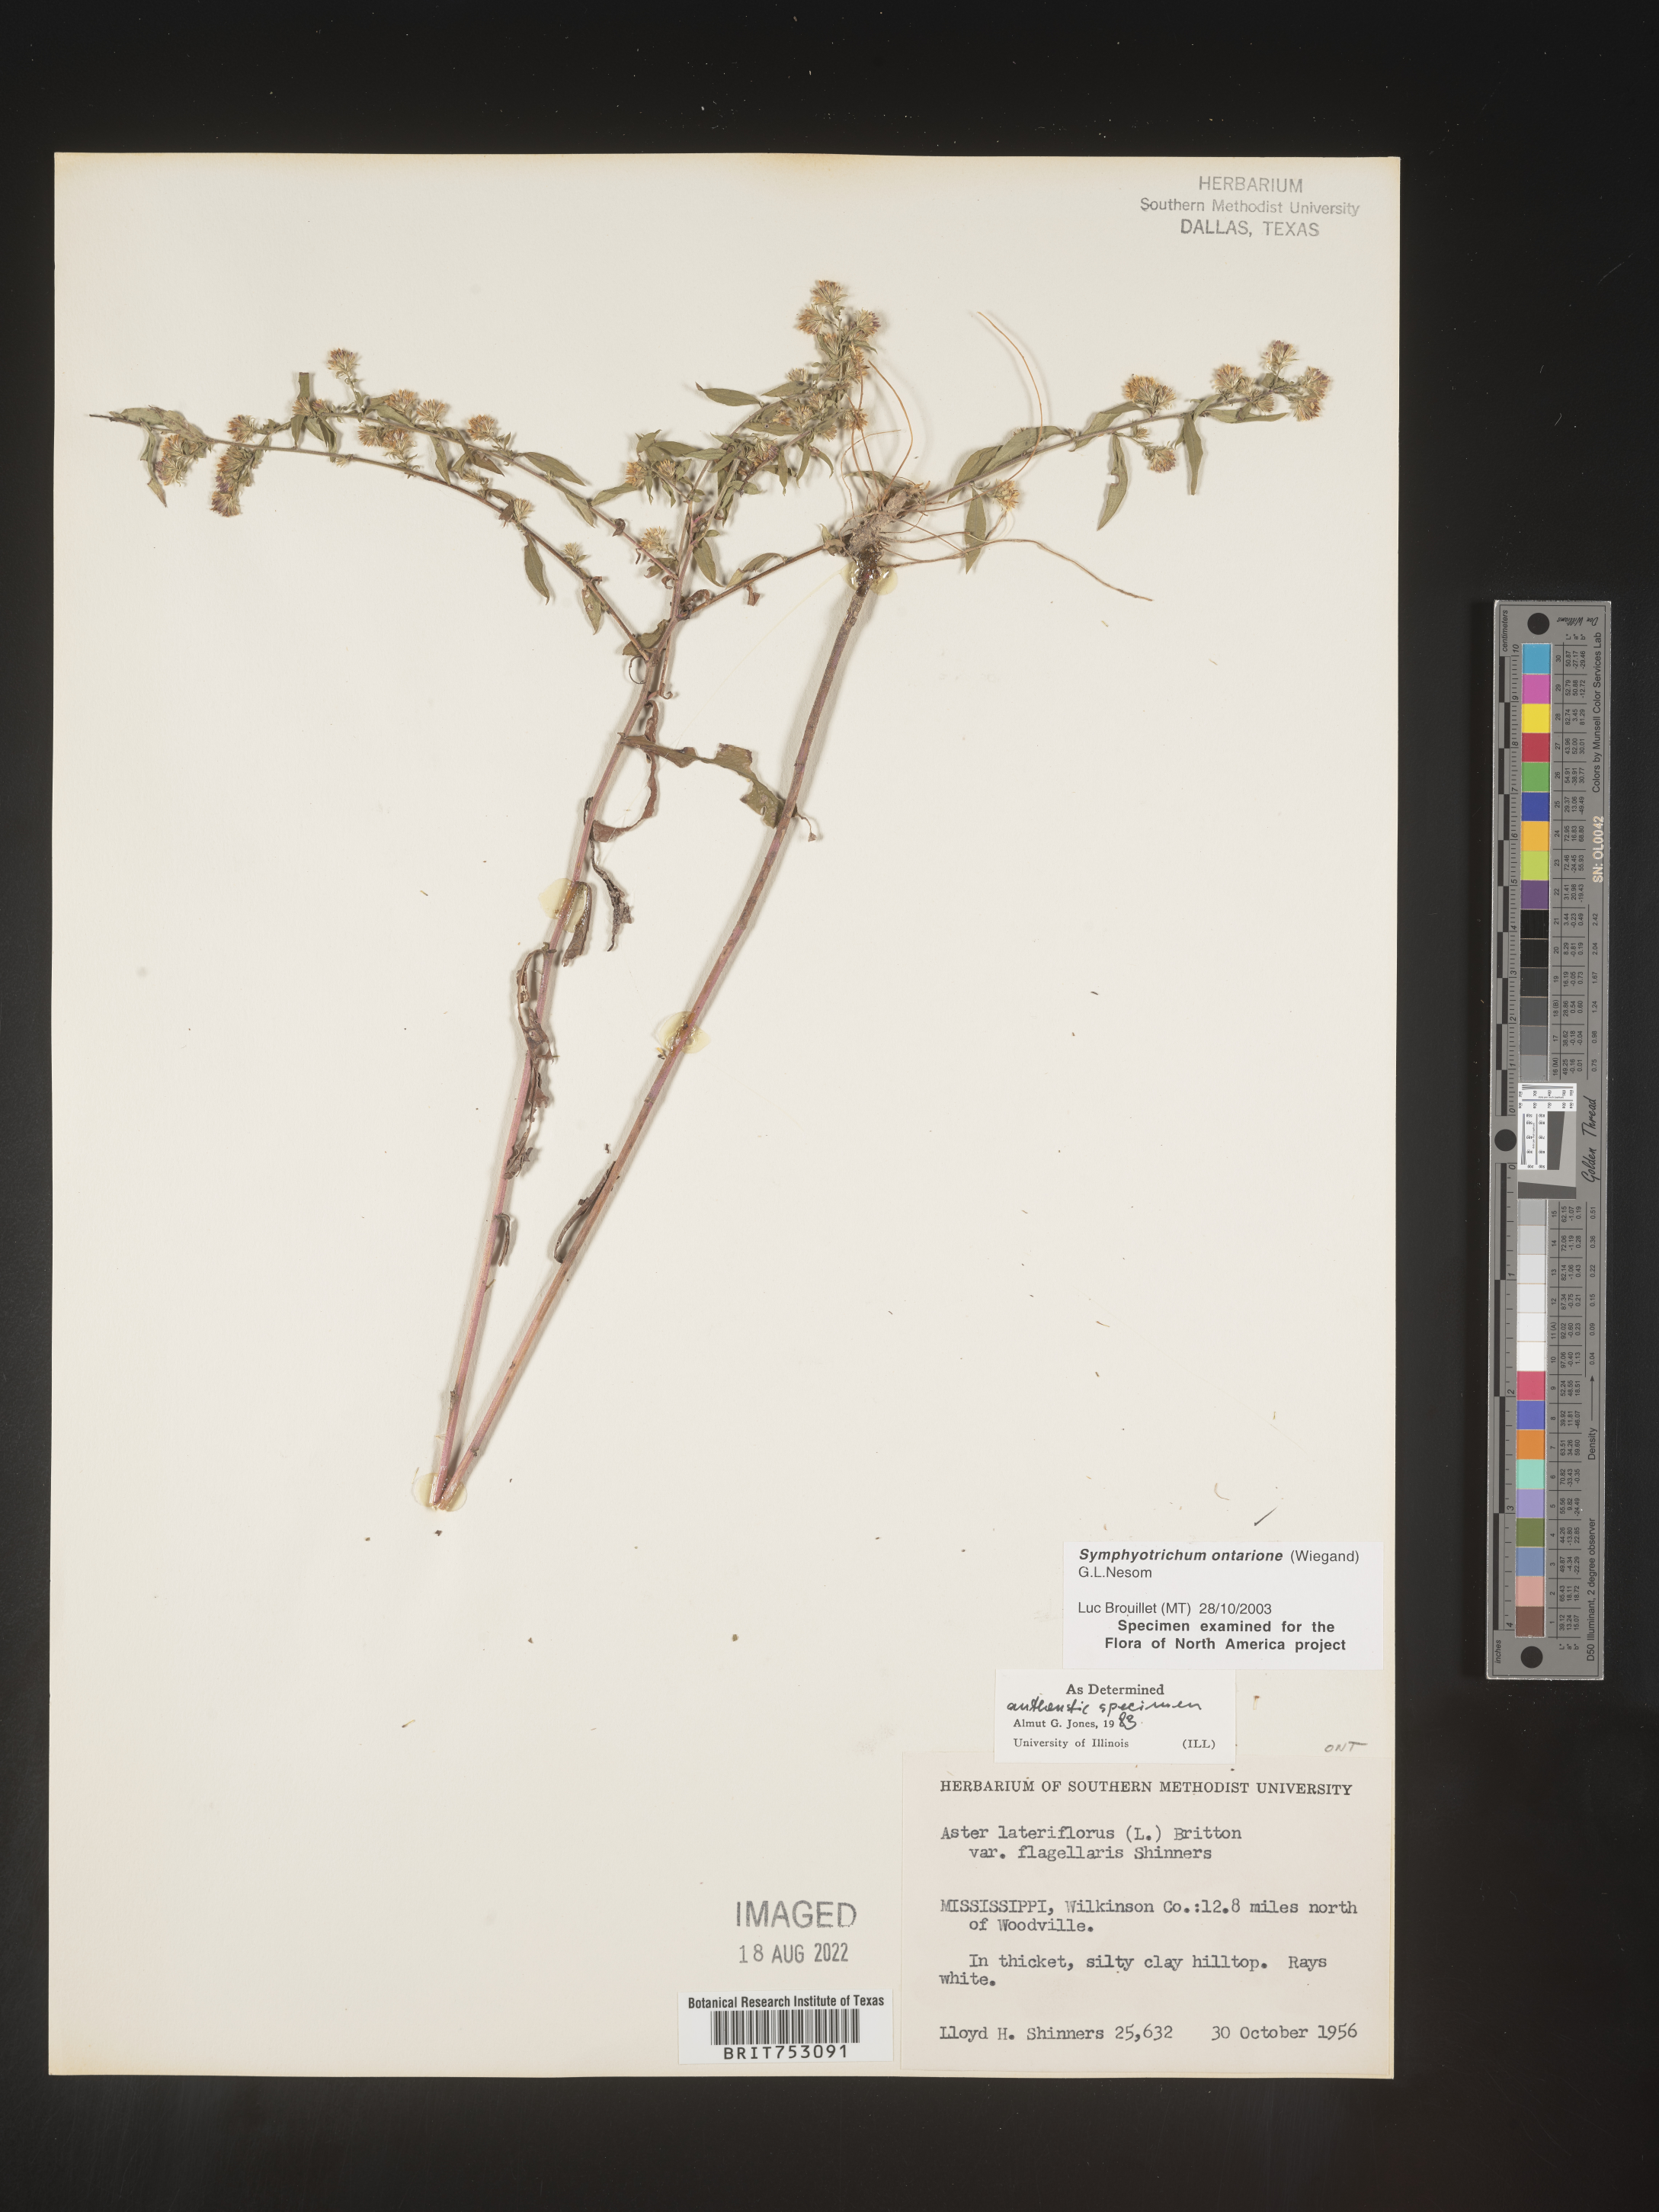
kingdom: Plantae
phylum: Tracheophyta
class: Magnoliopsida
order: Asterales
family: Asteraceae
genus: Symphyotrichum
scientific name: Symphyotrichum ontarionis
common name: Bottomland aster
